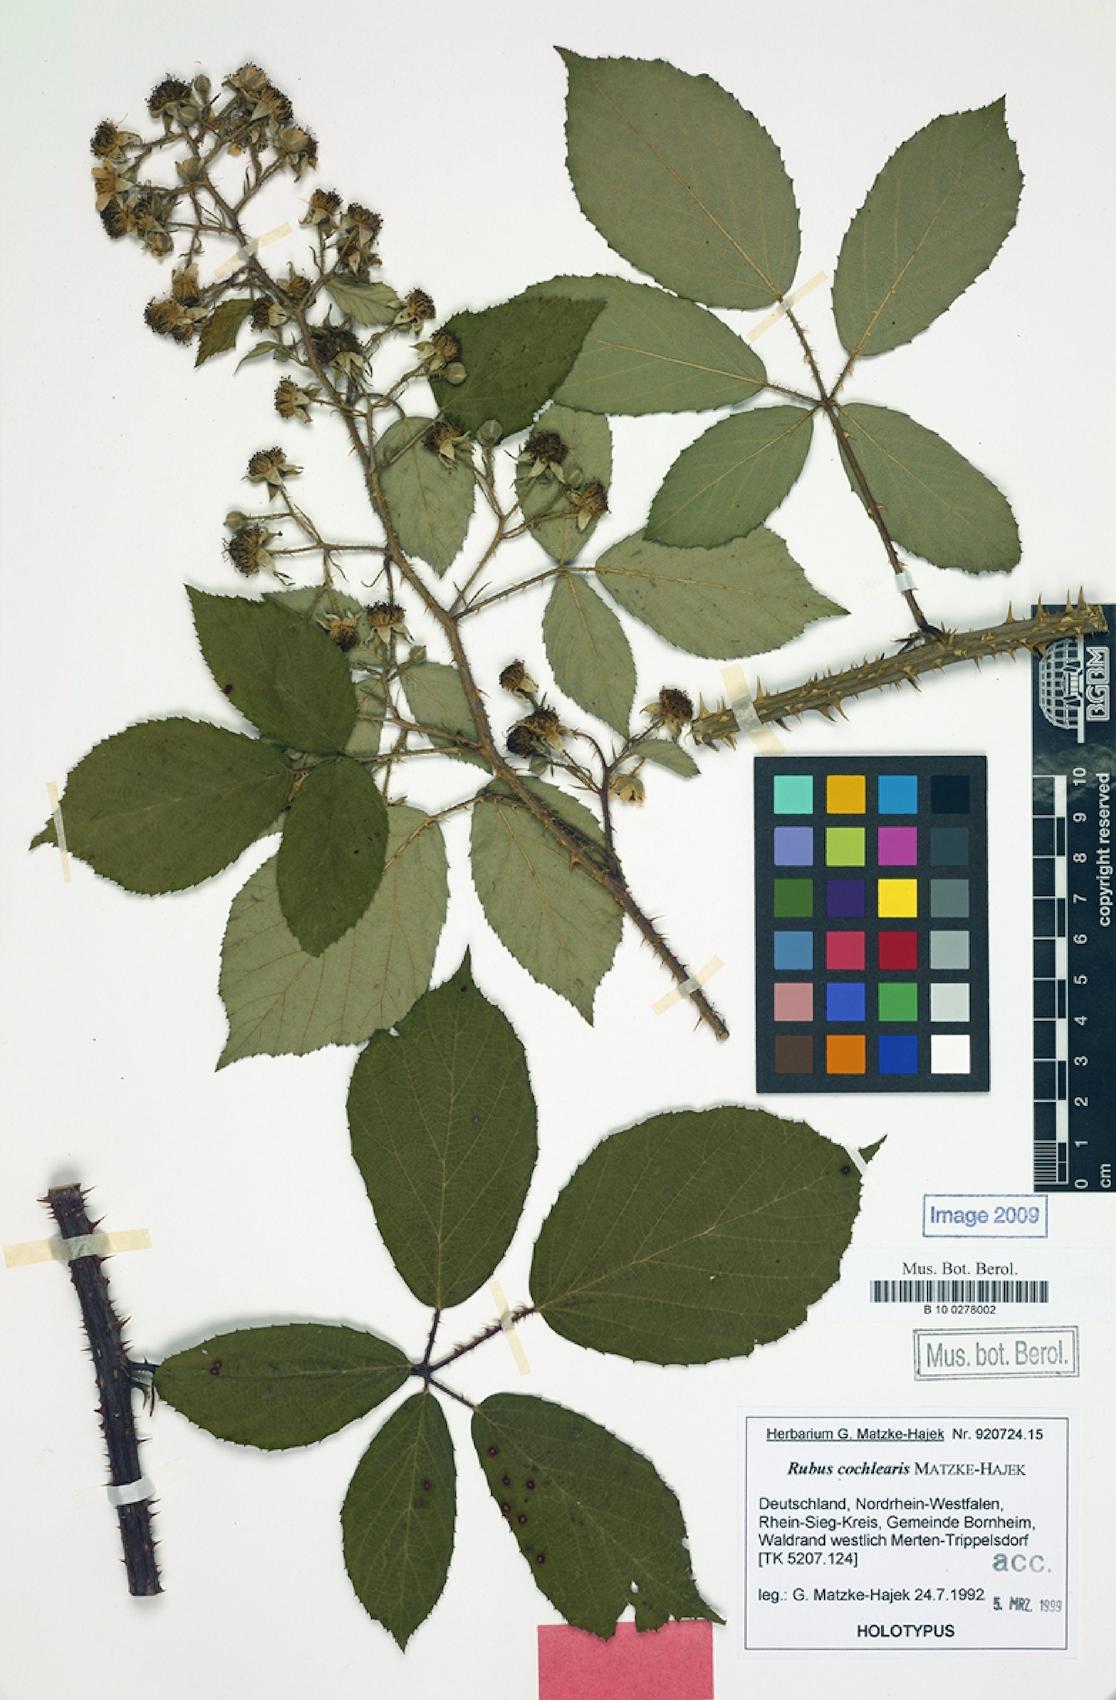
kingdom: Plantae
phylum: Tracheophyta
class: Magnoliopsida
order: Rosales
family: Rosaceae
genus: Rubus
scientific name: Rubus cochlearis
